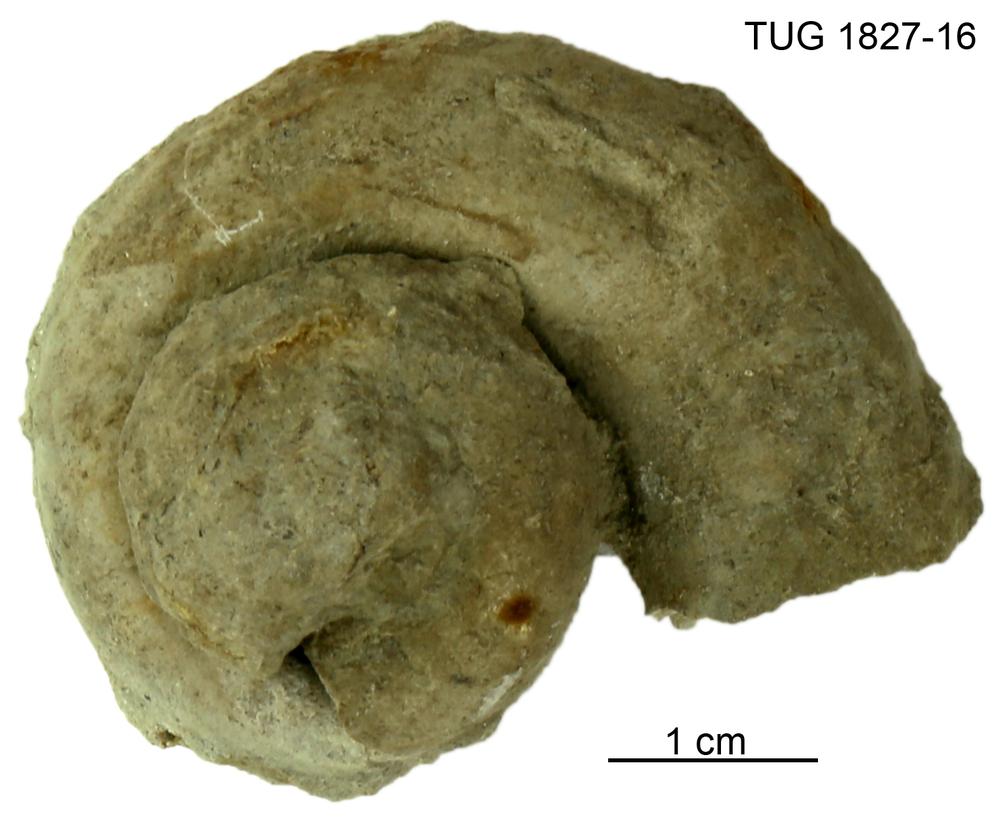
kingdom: Animalia
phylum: Mollusca
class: Gastropoda
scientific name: Gastropoda
